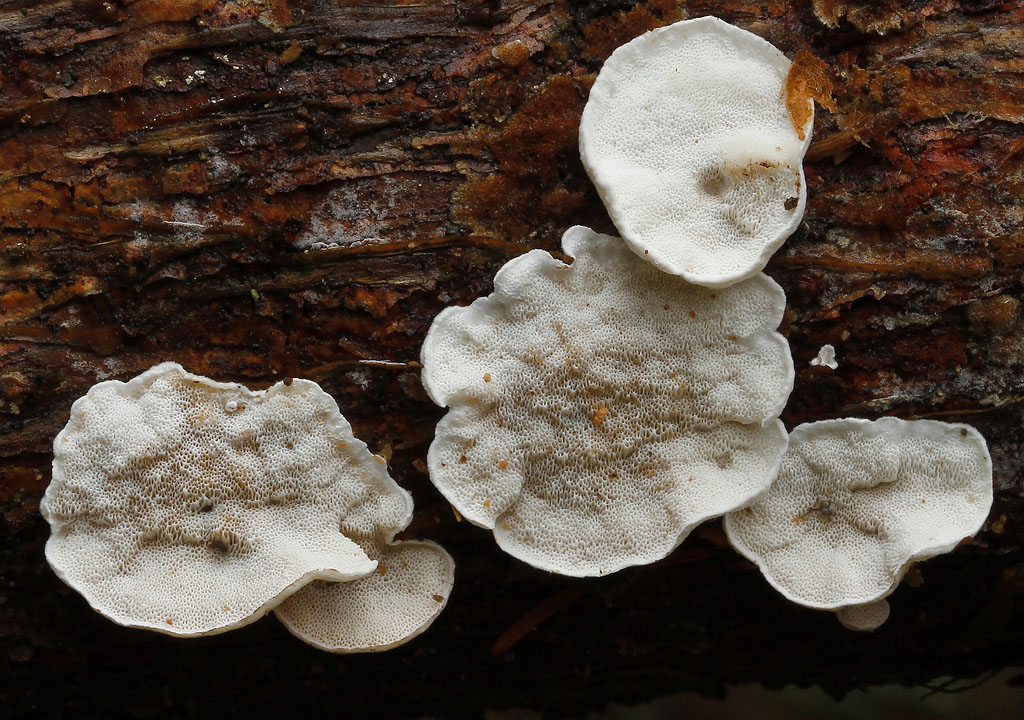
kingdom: Fungi
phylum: Basidiomycota
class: Agaricomycetes
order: Polyporales
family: Incrustoporiaceae
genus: Skeletocutis
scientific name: Skeletocutis carneogrisea
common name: rødgrå krystalporesvamp
